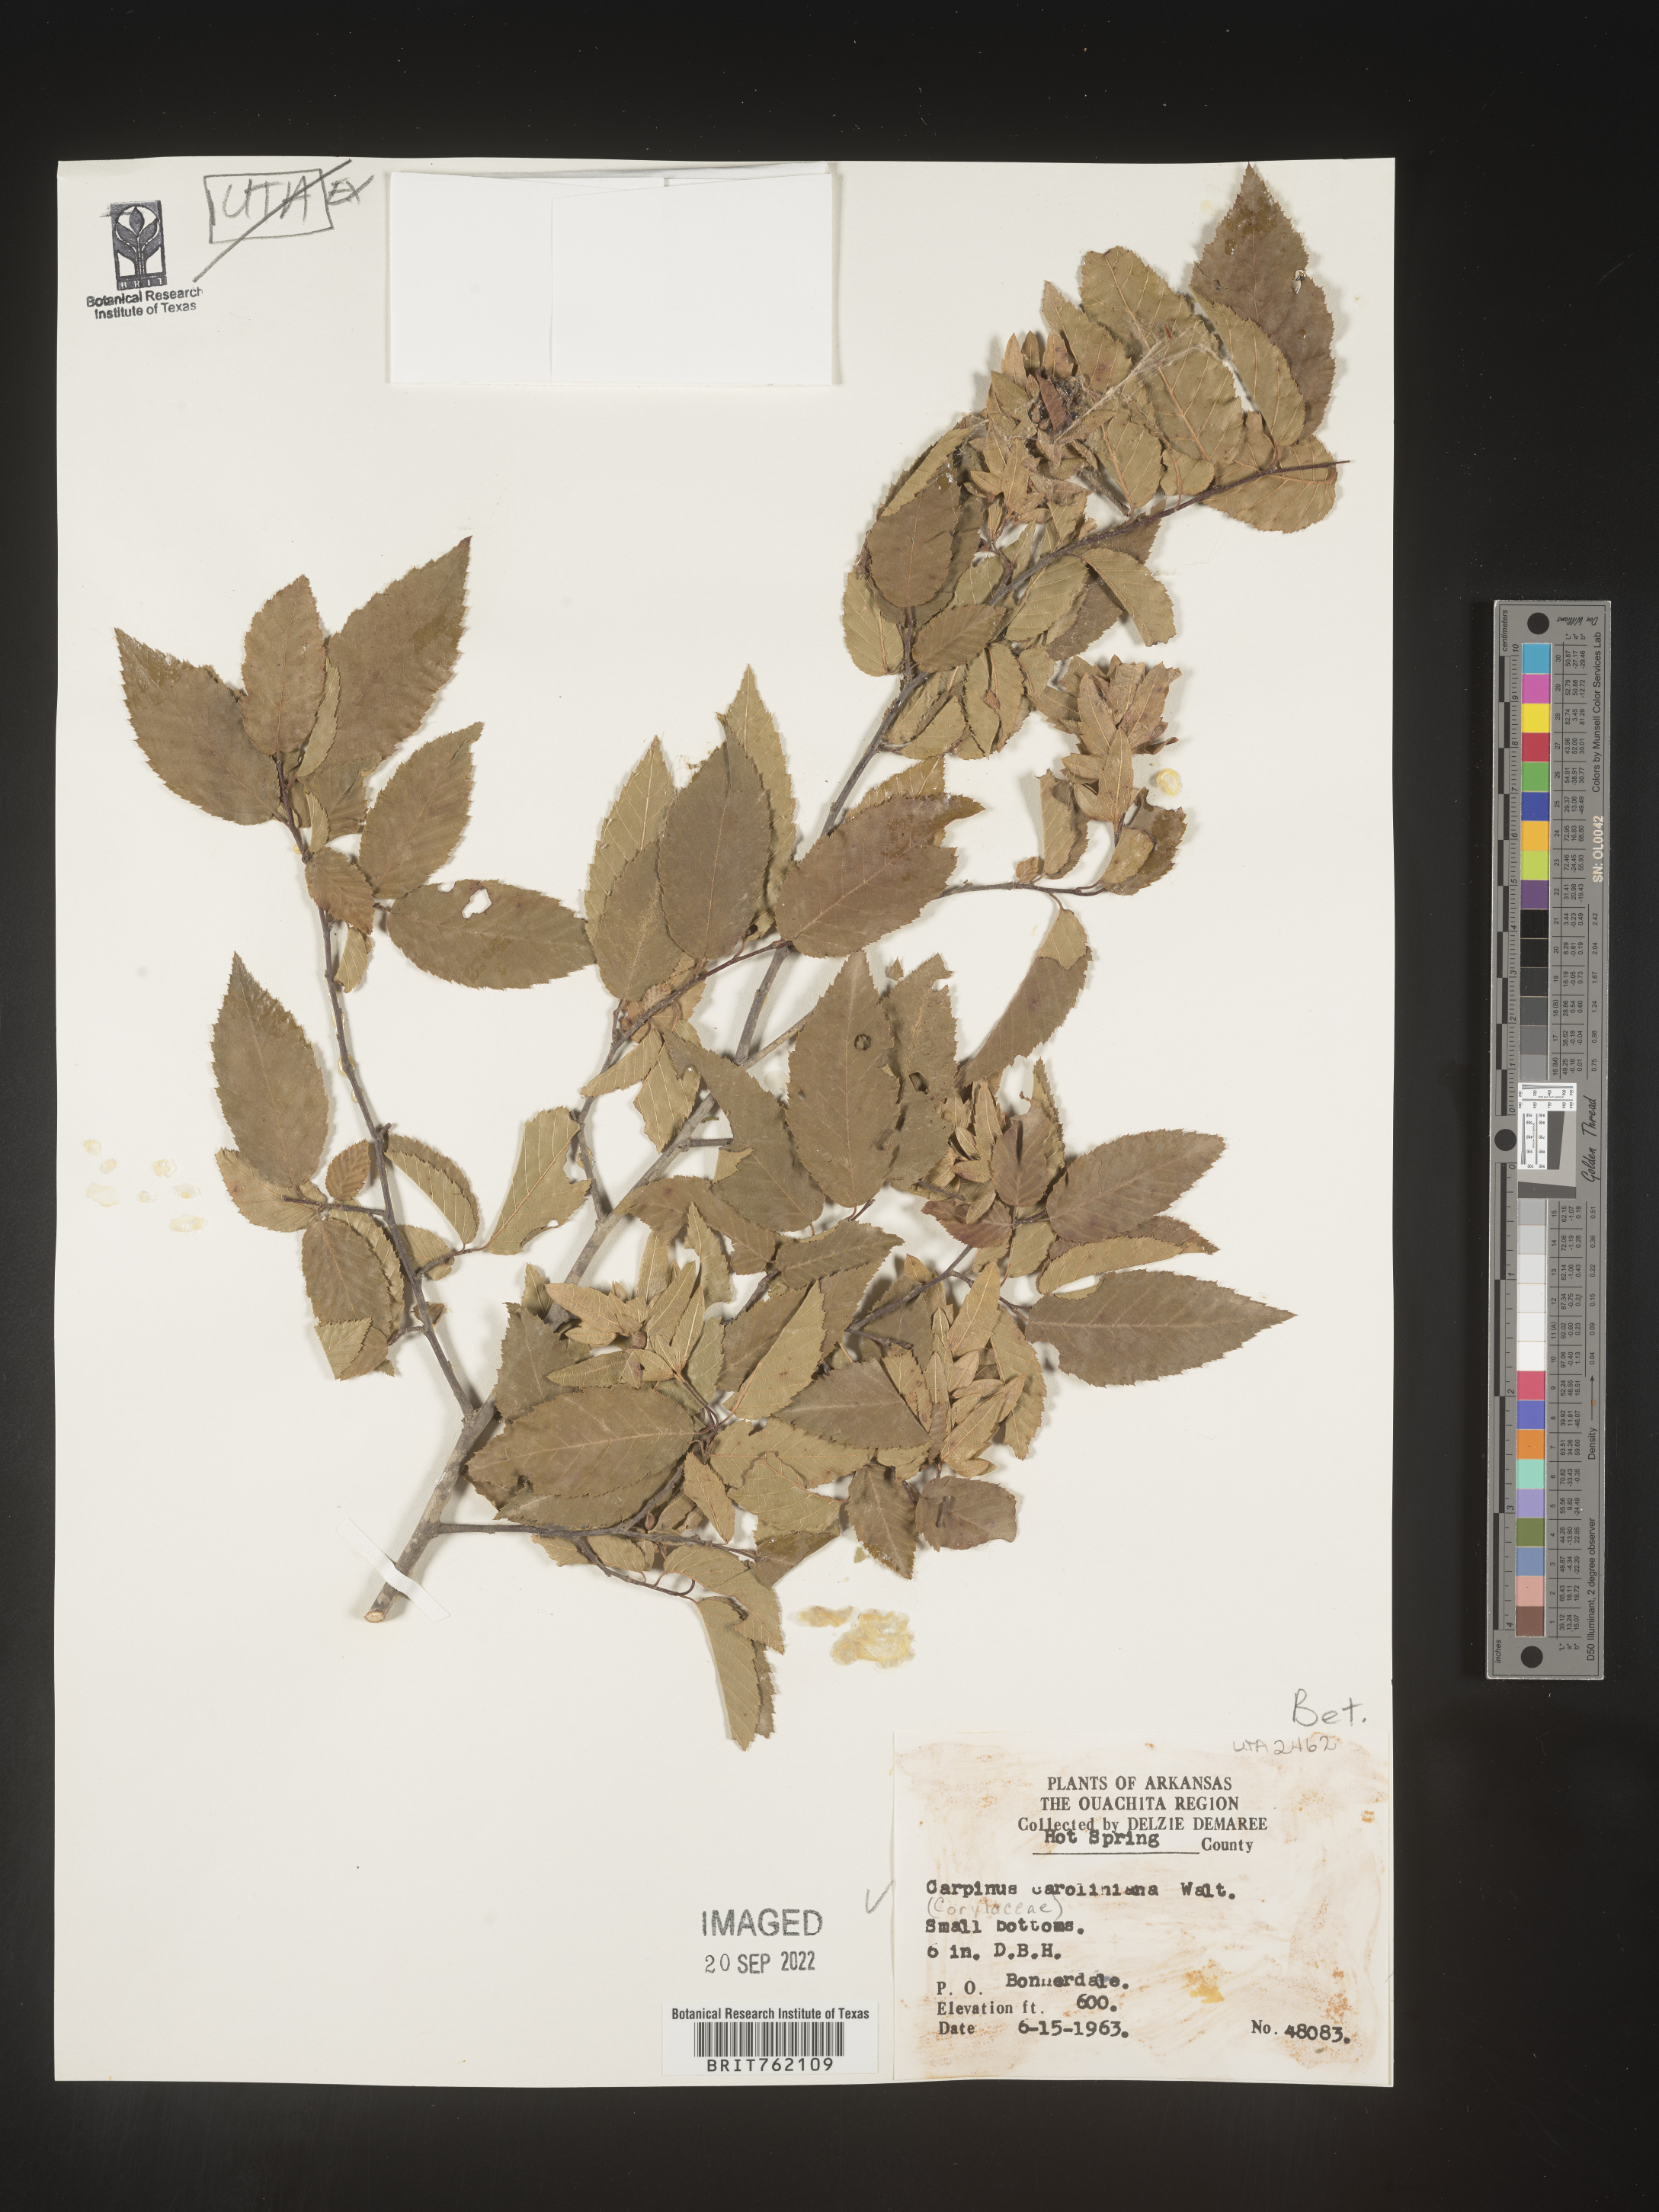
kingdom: Plantae
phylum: Tracheophyta
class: Magnoliopsida
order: Fagales
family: Betulaceae
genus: Carpinus
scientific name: Carpinus caroliniana
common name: American hornbeam
